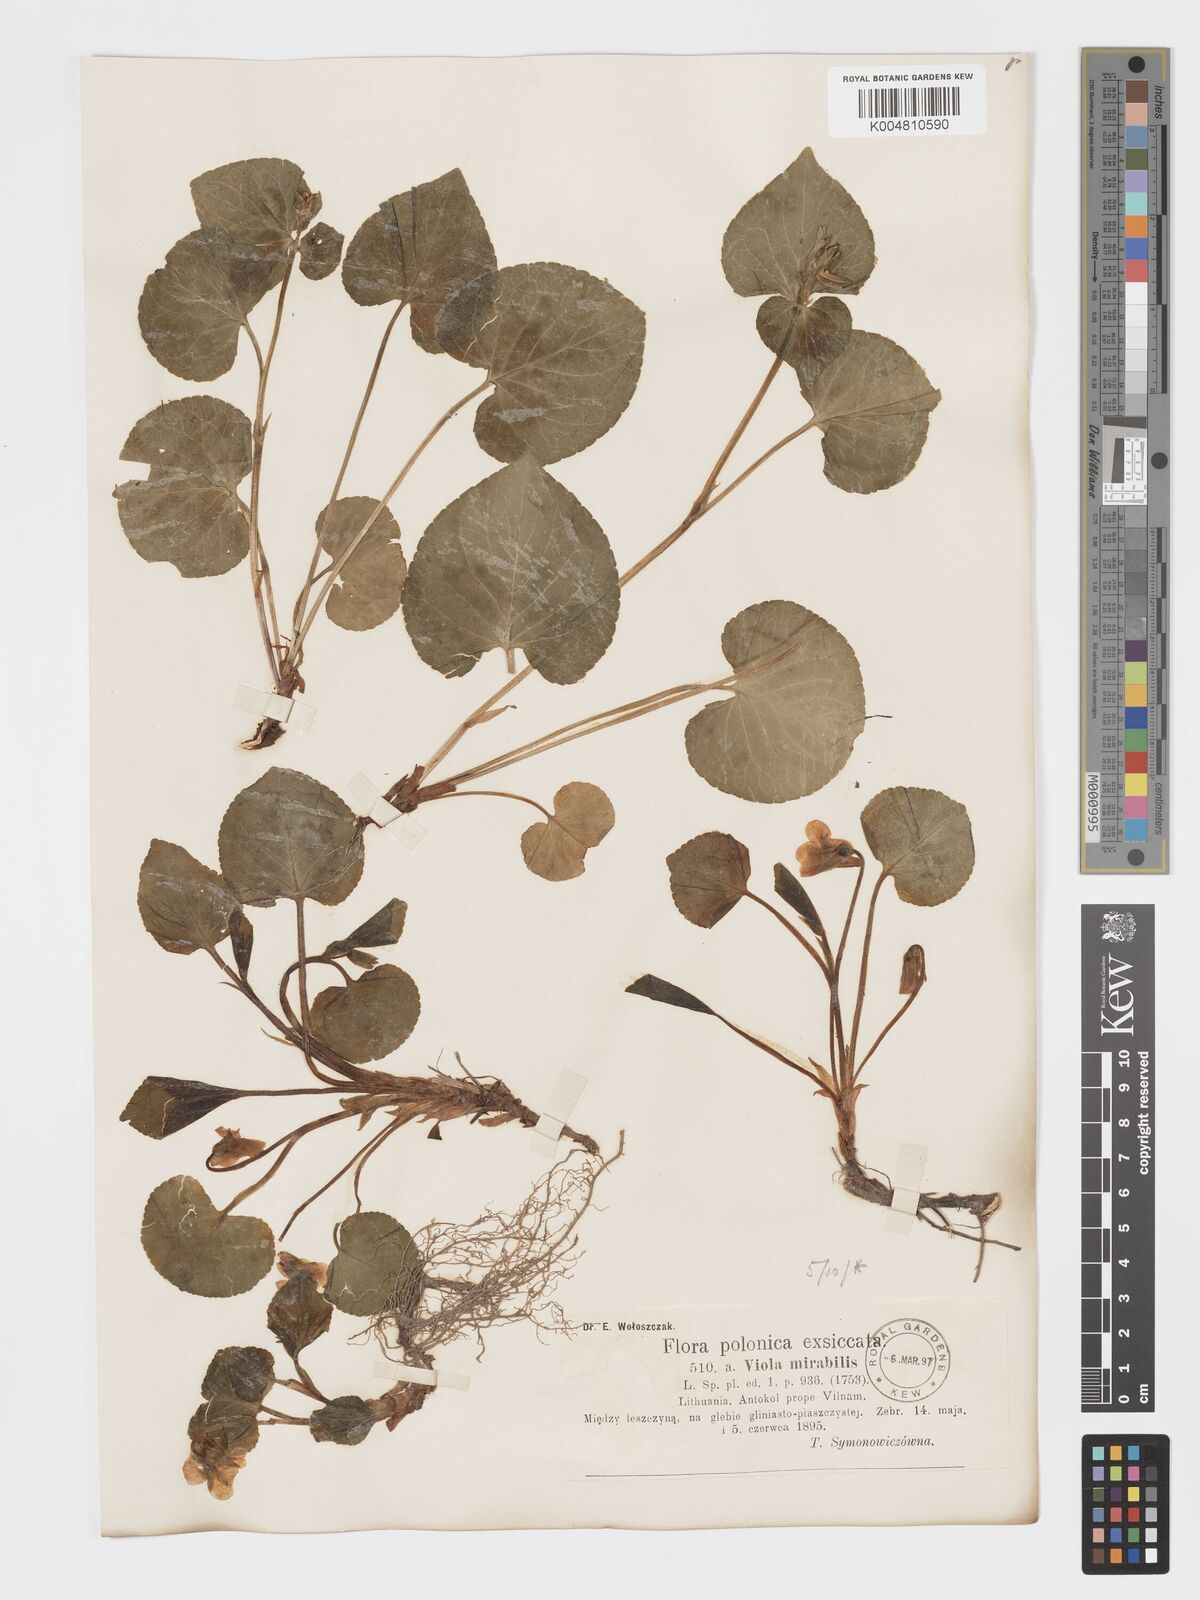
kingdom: Plantae
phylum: Tracheophyta
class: Magnoliopsida
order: Malpighiales
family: Violaceae
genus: Viola
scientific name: Viola mirabilis
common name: Wonder violet
